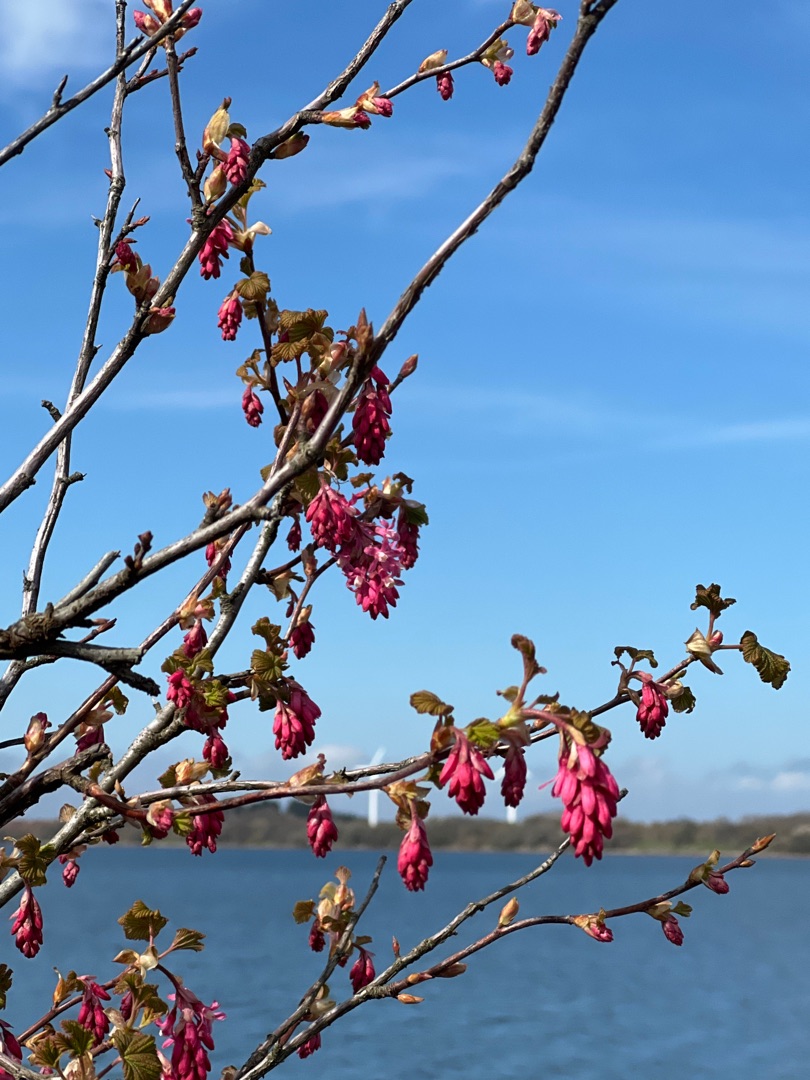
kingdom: Plantae
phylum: Tracheophyta
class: Magnoliopsida
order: Saxifragales
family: Grossulariaceae
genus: Ribes
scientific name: Ribes sanguineum
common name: Blod-ribs
